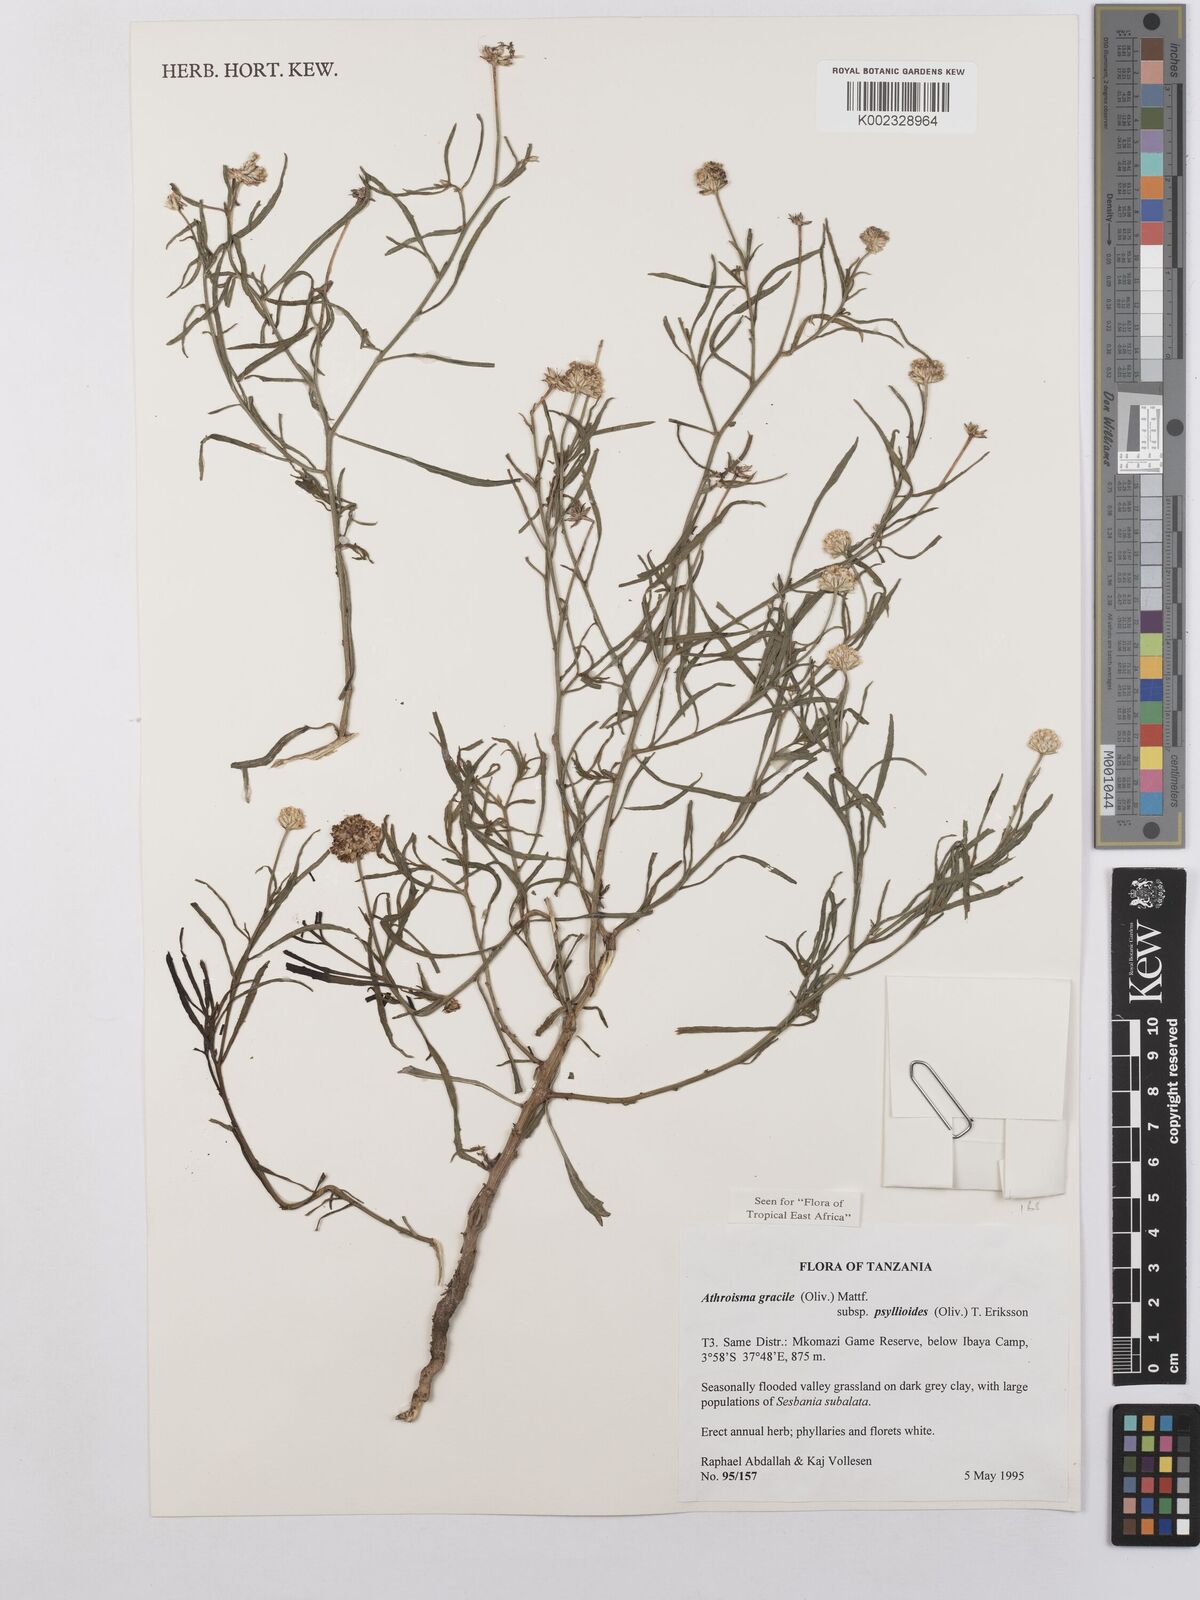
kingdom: Plantae
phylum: Tracheophyta
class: Magnoliopsida
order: Asterales
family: Asteraceae
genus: Athroisma
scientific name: Athroisma gracile
